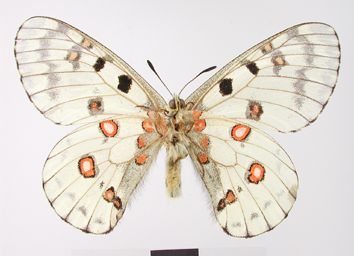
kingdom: Animalia
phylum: Arthropoda
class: Insecta
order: Lepidoptera
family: Papilionidae
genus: Parnassius
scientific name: Parnassius bremeri
